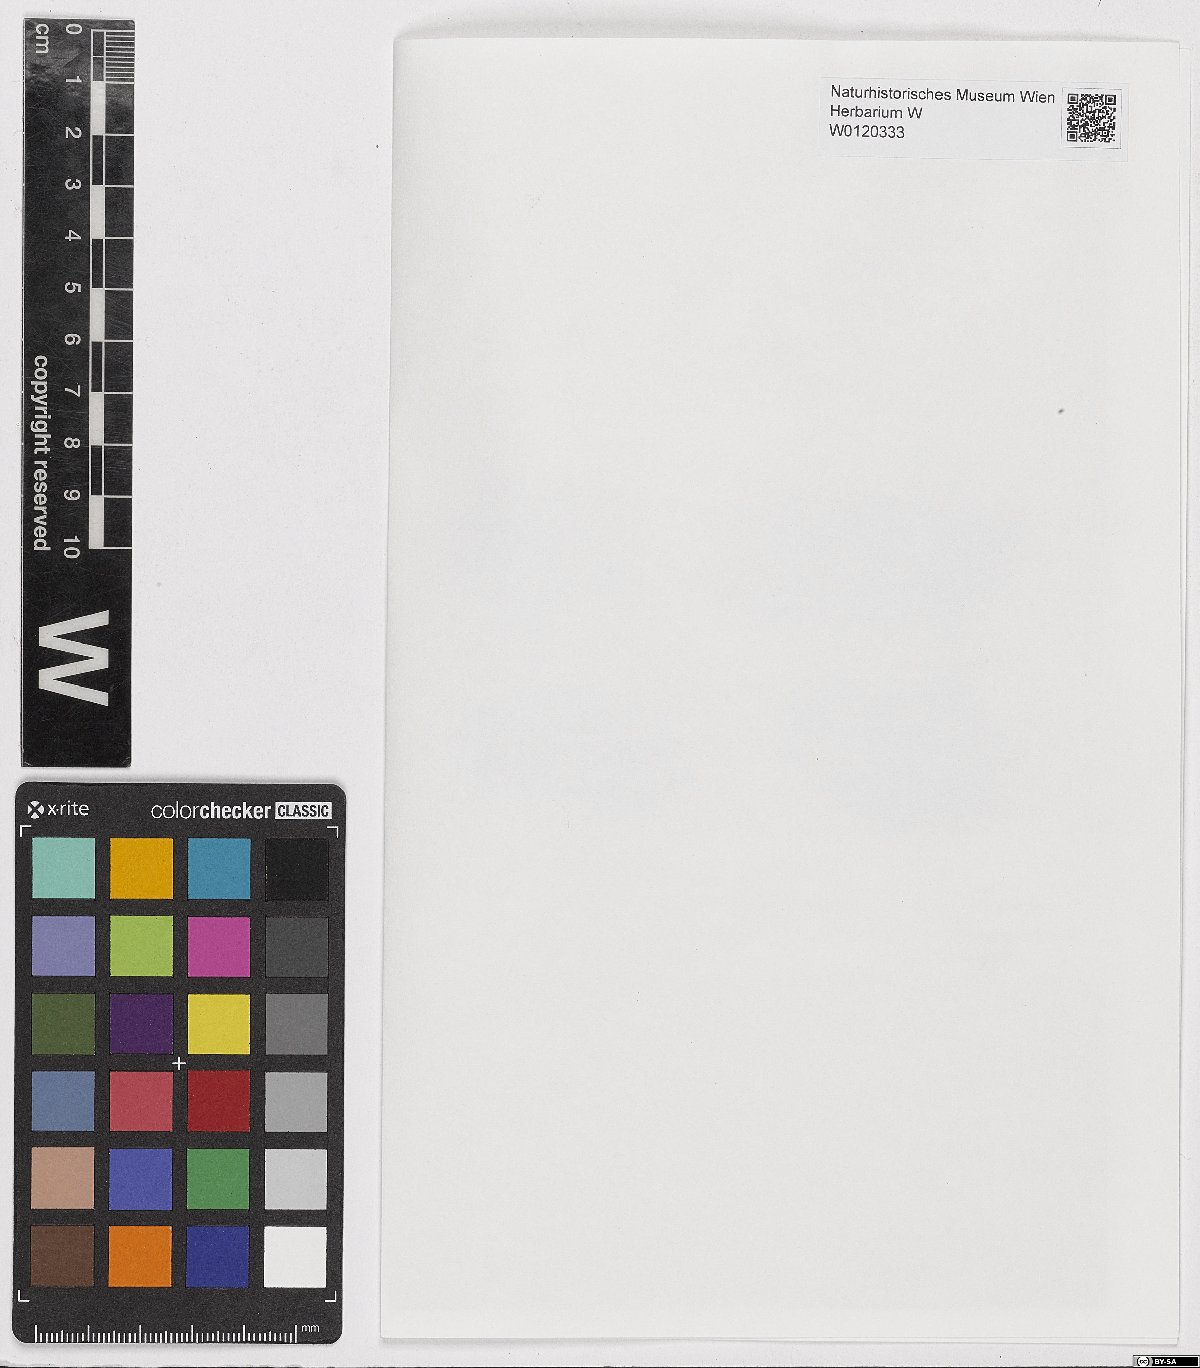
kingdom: Plantae
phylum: Bryophyta
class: Bryopsida
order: Hypnales
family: Plagiotheciaceae
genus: Isopterygiella
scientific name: Isopterygiella pulchella
